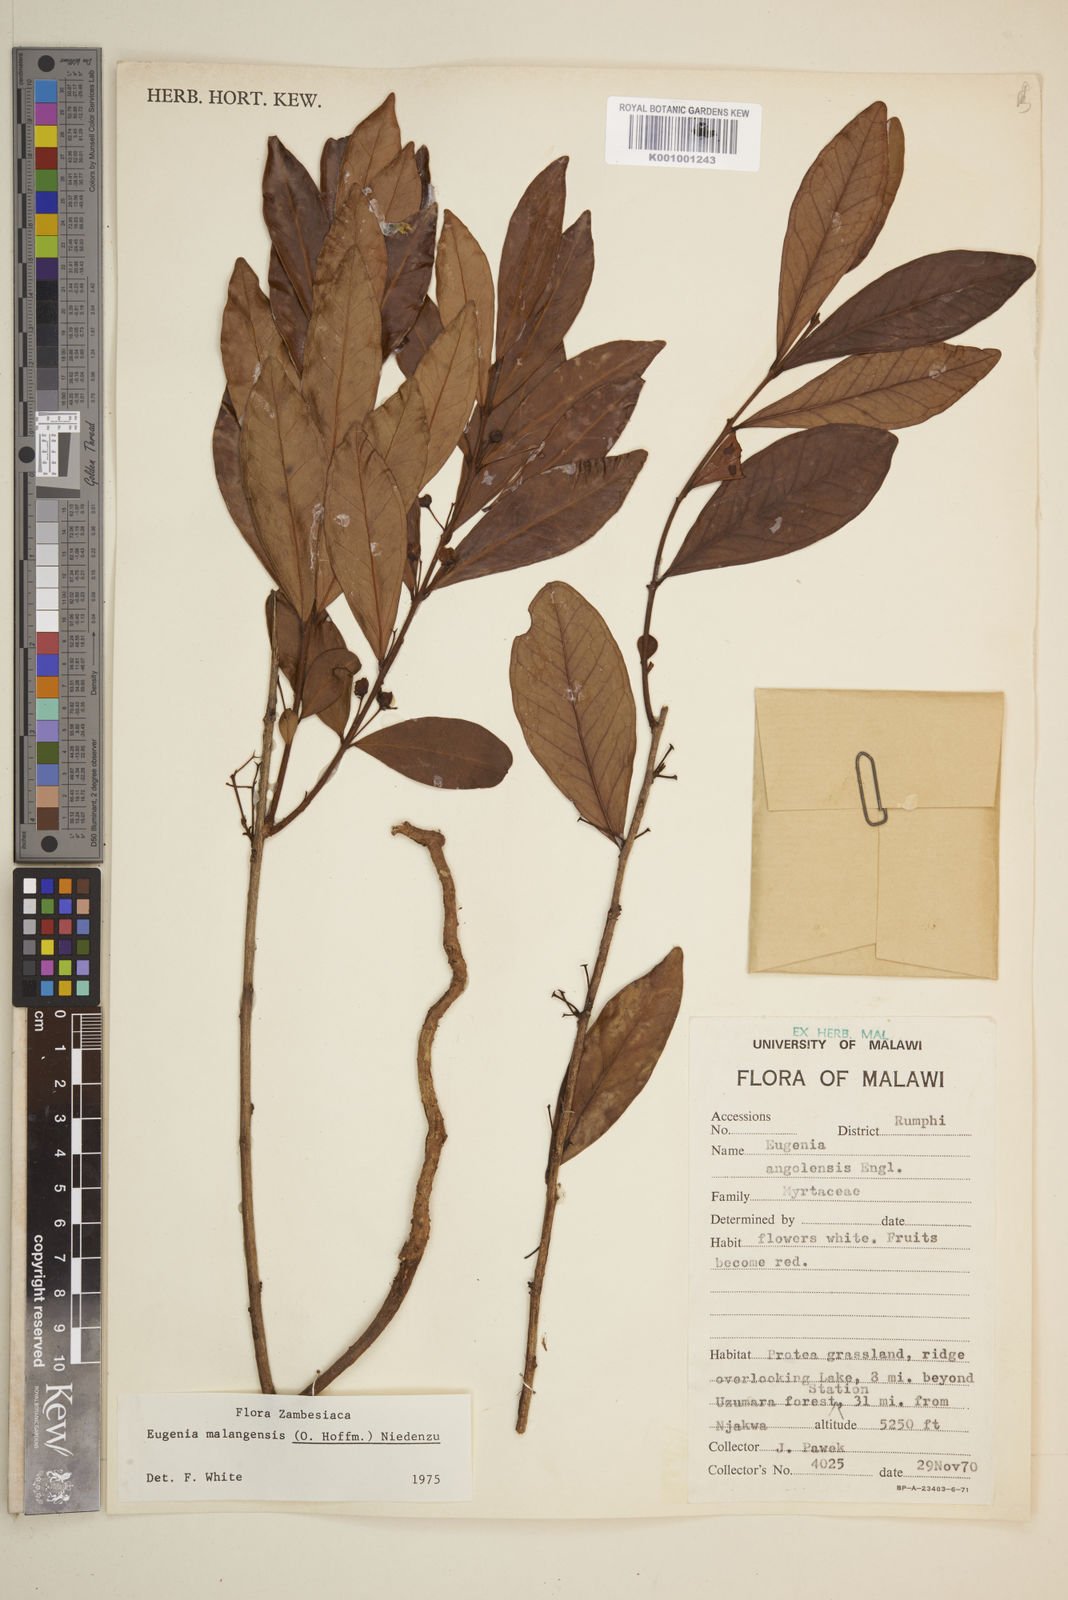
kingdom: Plantae
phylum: Tracheophyta
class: Magnoliopsida
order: Myrtales
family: Myrtaceae
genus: Eugenia
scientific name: Eugenia malangensis
